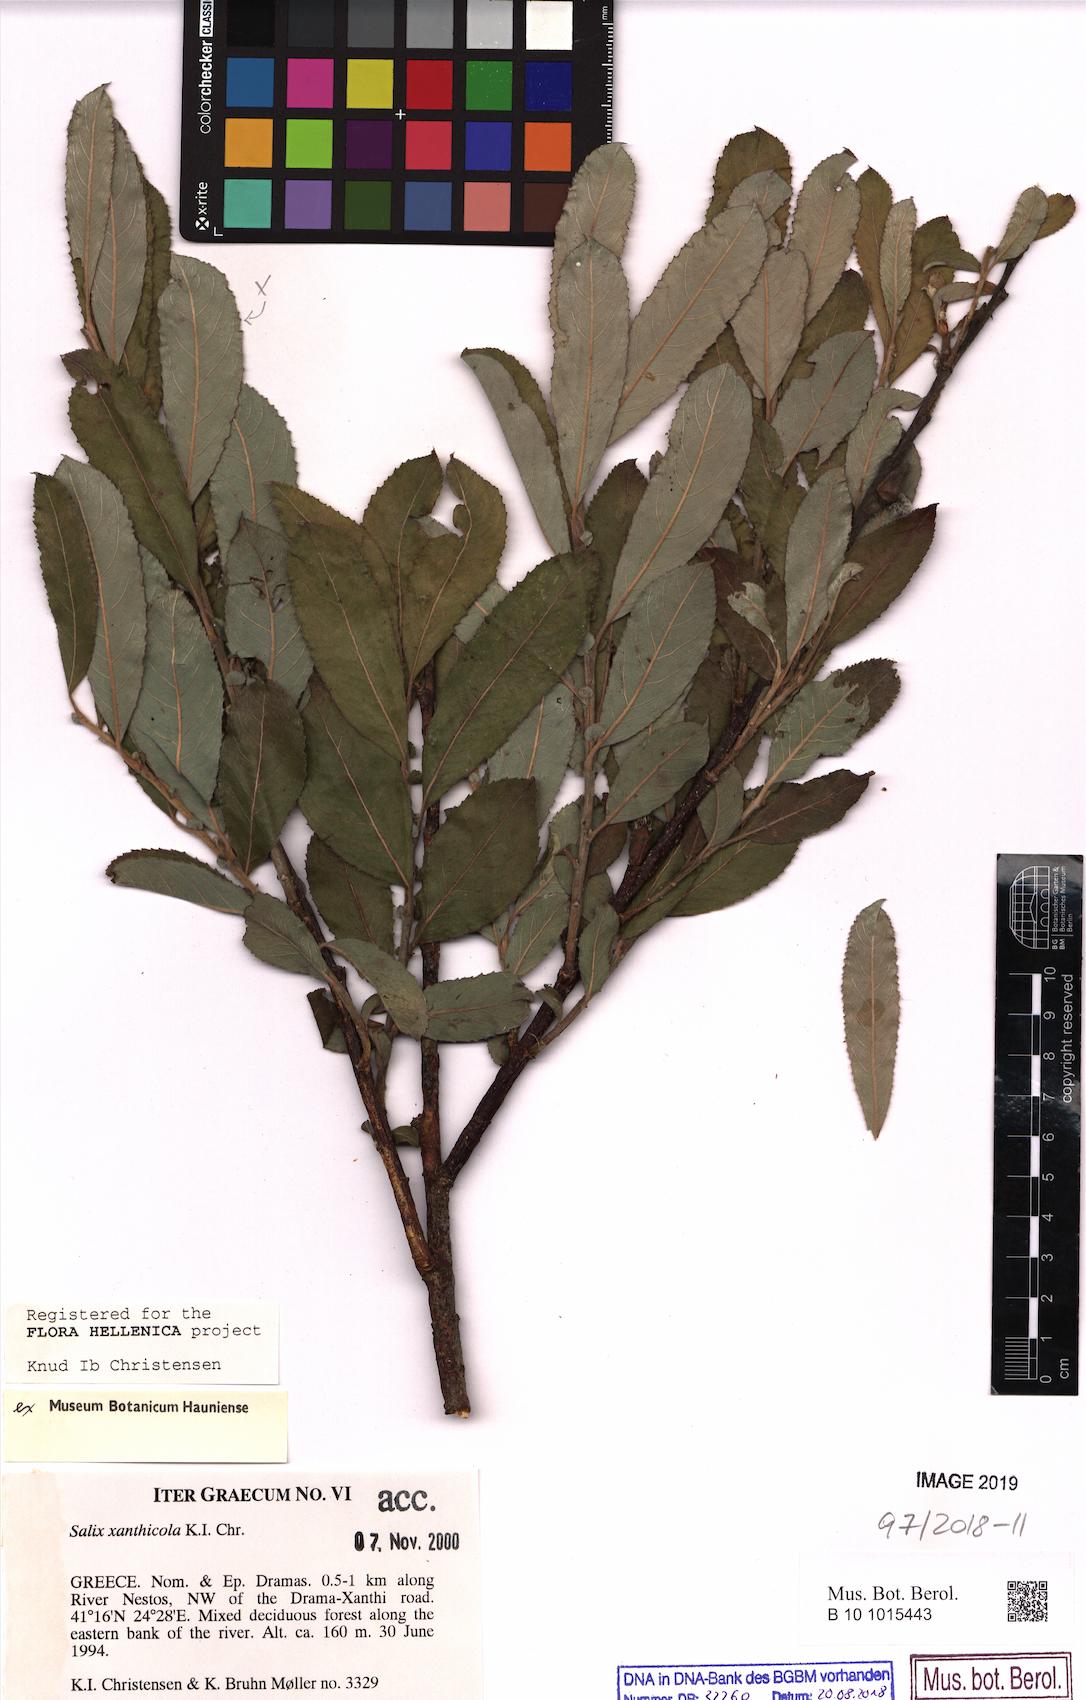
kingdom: Plantae
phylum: Tracheophyta
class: Magnoliopsida
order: Malpighiales
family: Salicaceae
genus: Salix
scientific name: Salix xanthicola
